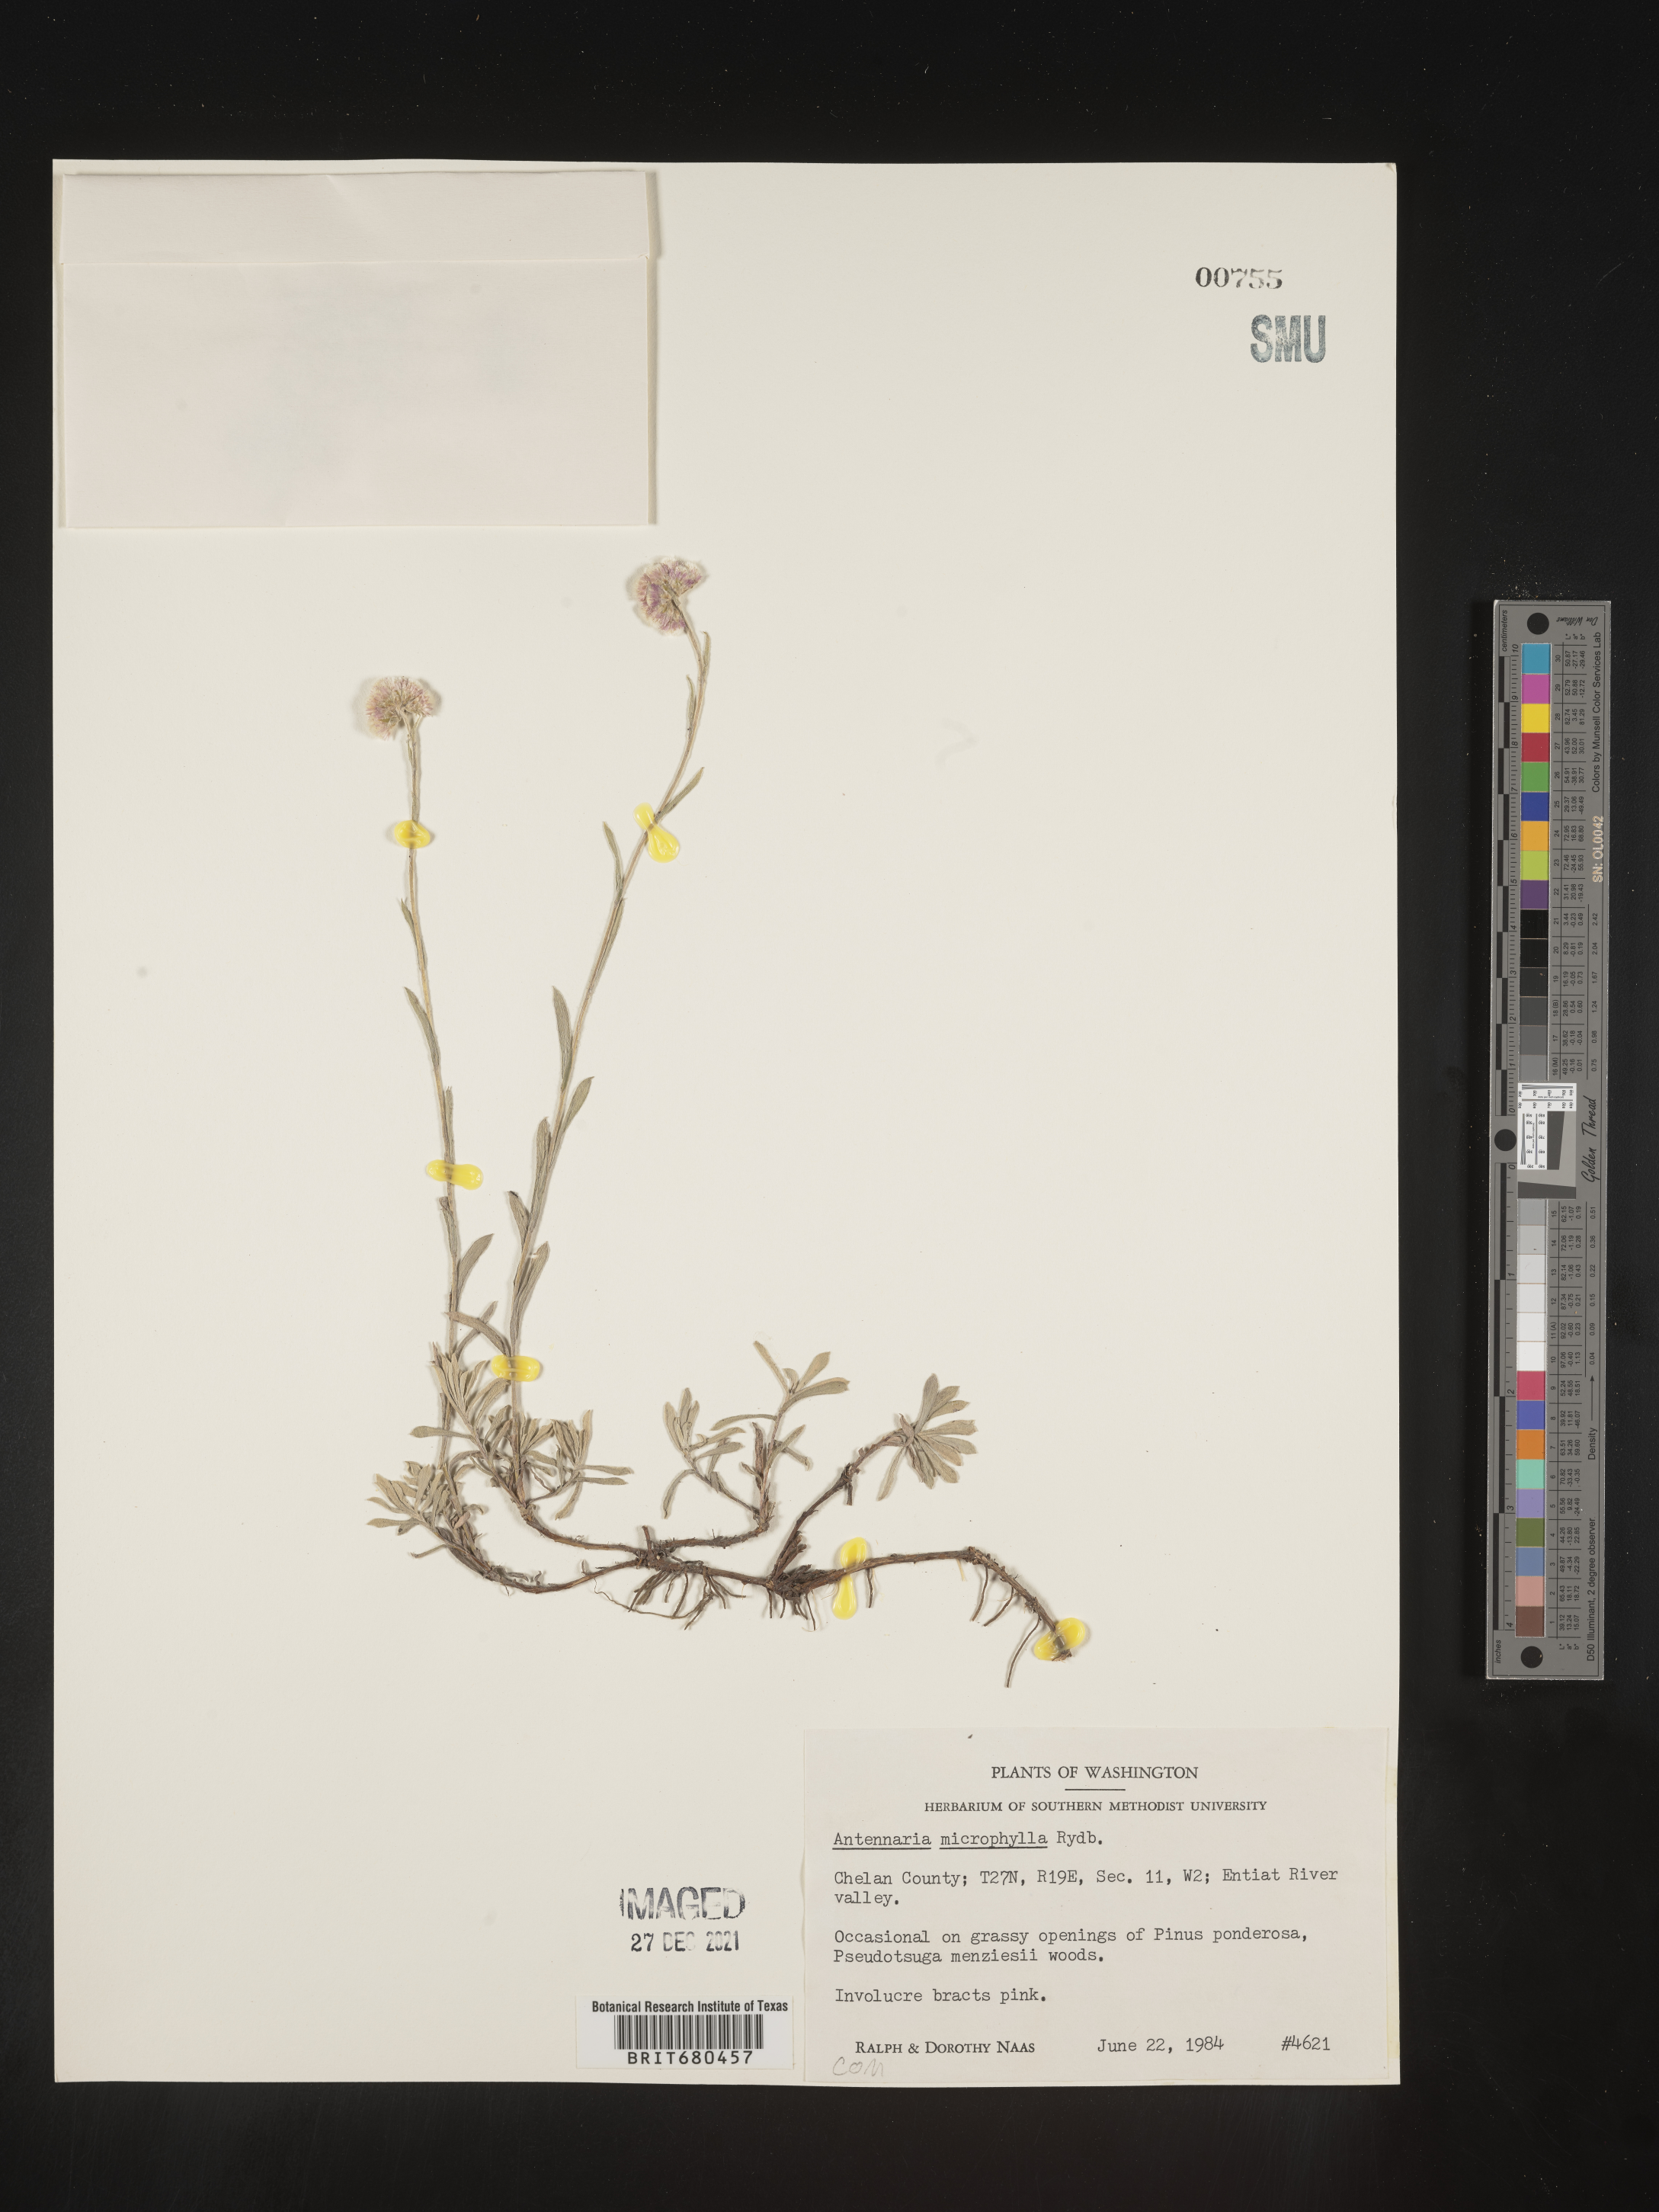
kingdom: Plantae
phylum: Tracheophyta
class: Magnoliopsida
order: Asterales
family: Asteraceae
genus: Antennaria
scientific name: Antennaria rosea
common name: Rosy pussytoes
